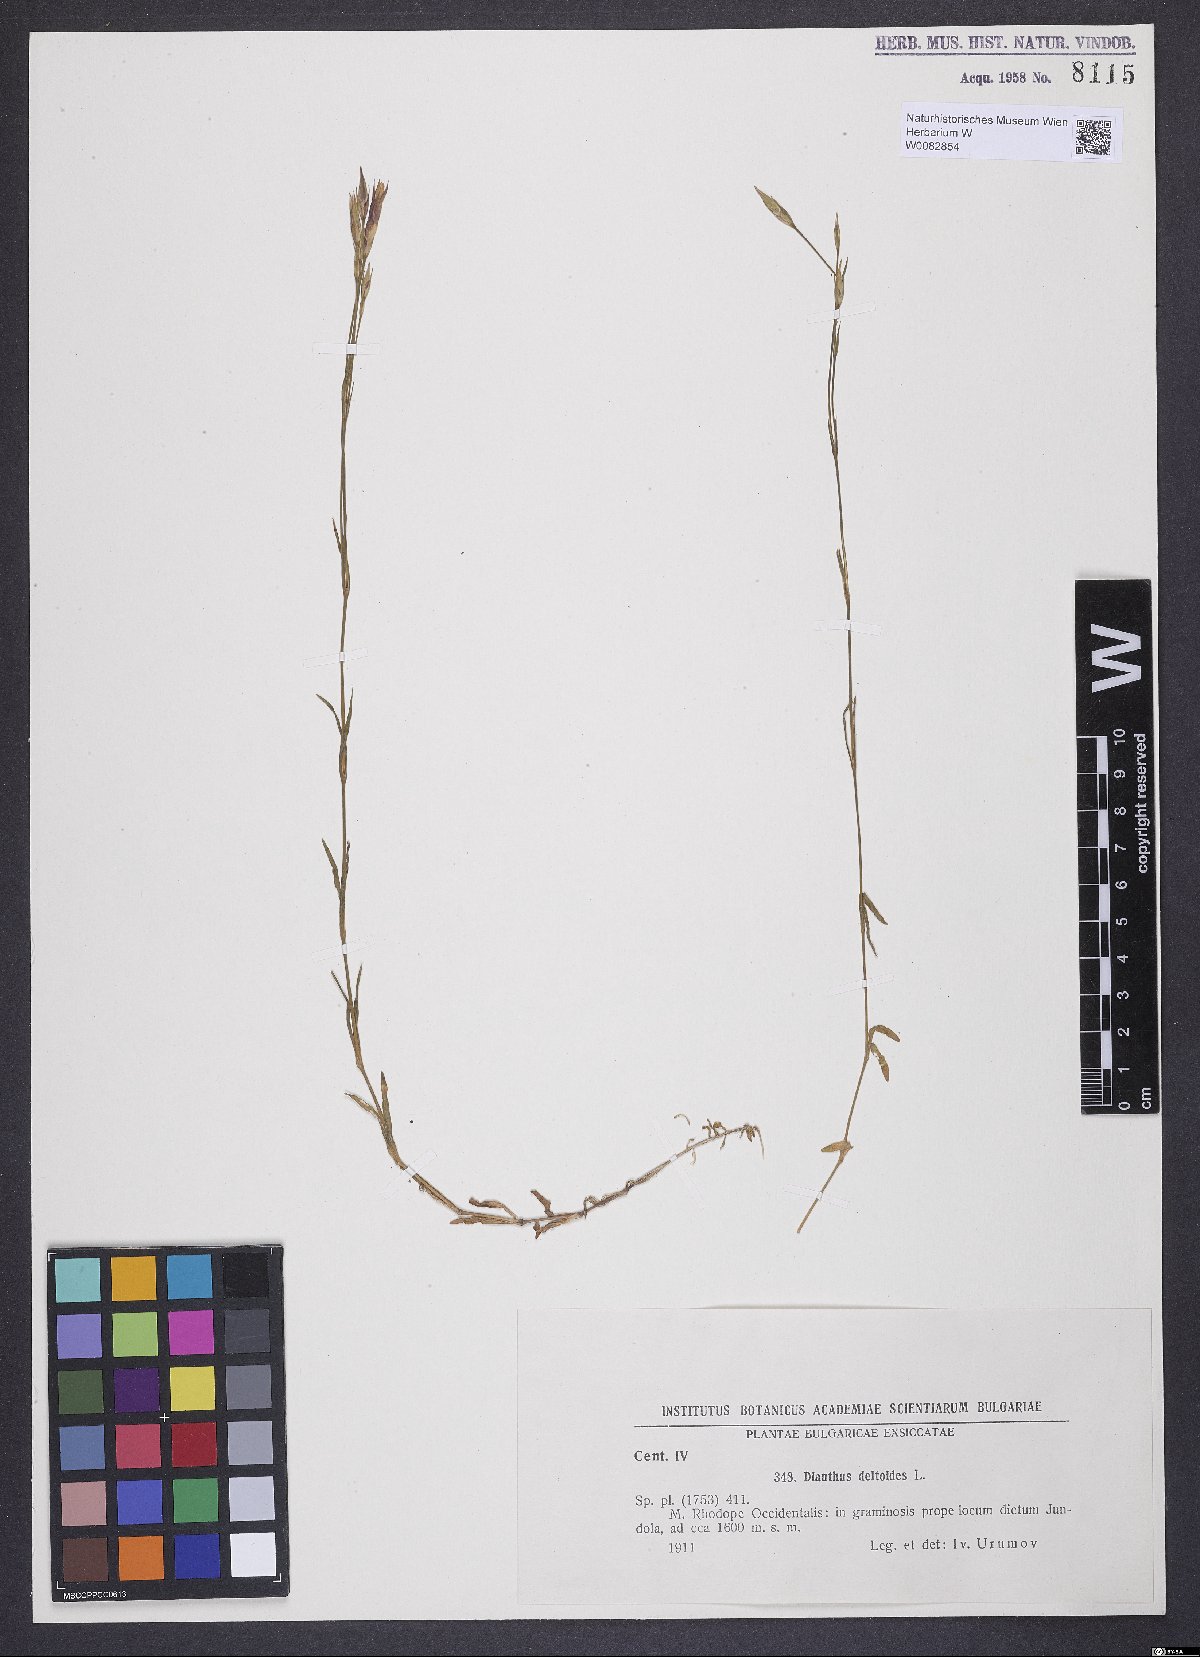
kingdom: Plantae
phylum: Tracheophyta
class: Magnoliopsida
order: Caryophyllales
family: Caryophyllaceae
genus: Dianthus
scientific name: Dianthus deltoides
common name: Maiden pink
